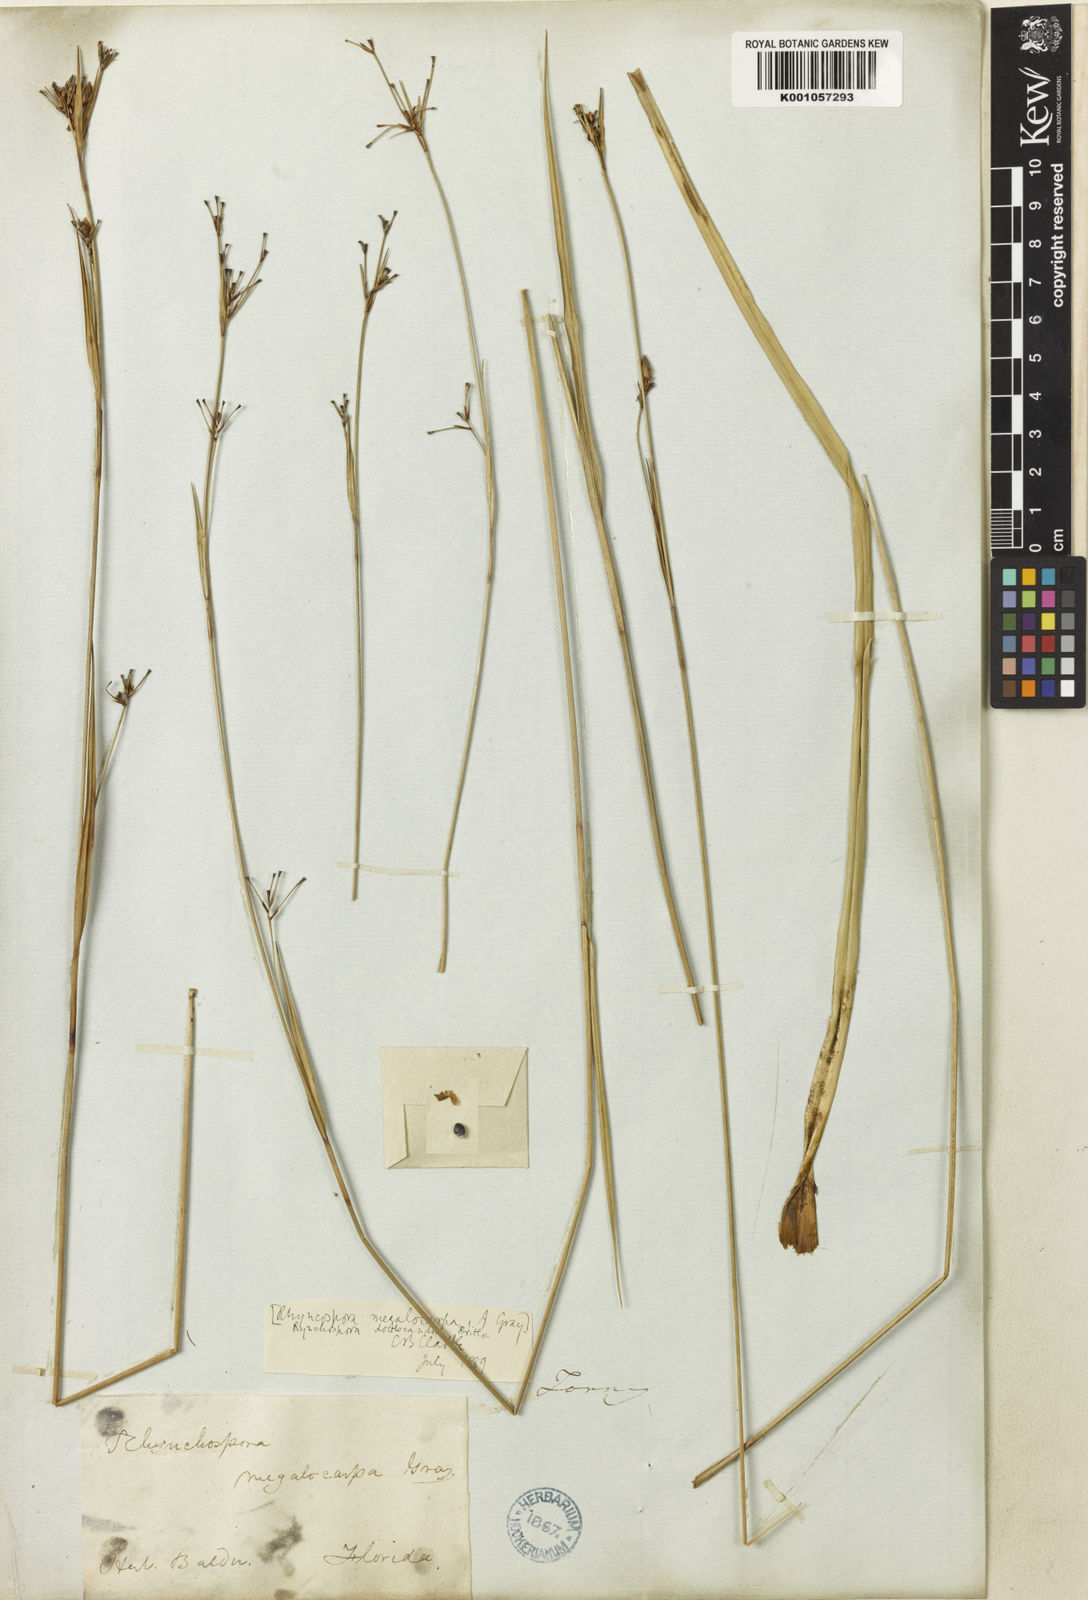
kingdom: Plantae
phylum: Tracheophyta
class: Liliopsida
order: Poales
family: Cyperaceae
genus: Rhynchospora
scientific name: Rhynchospora megalocarpa
